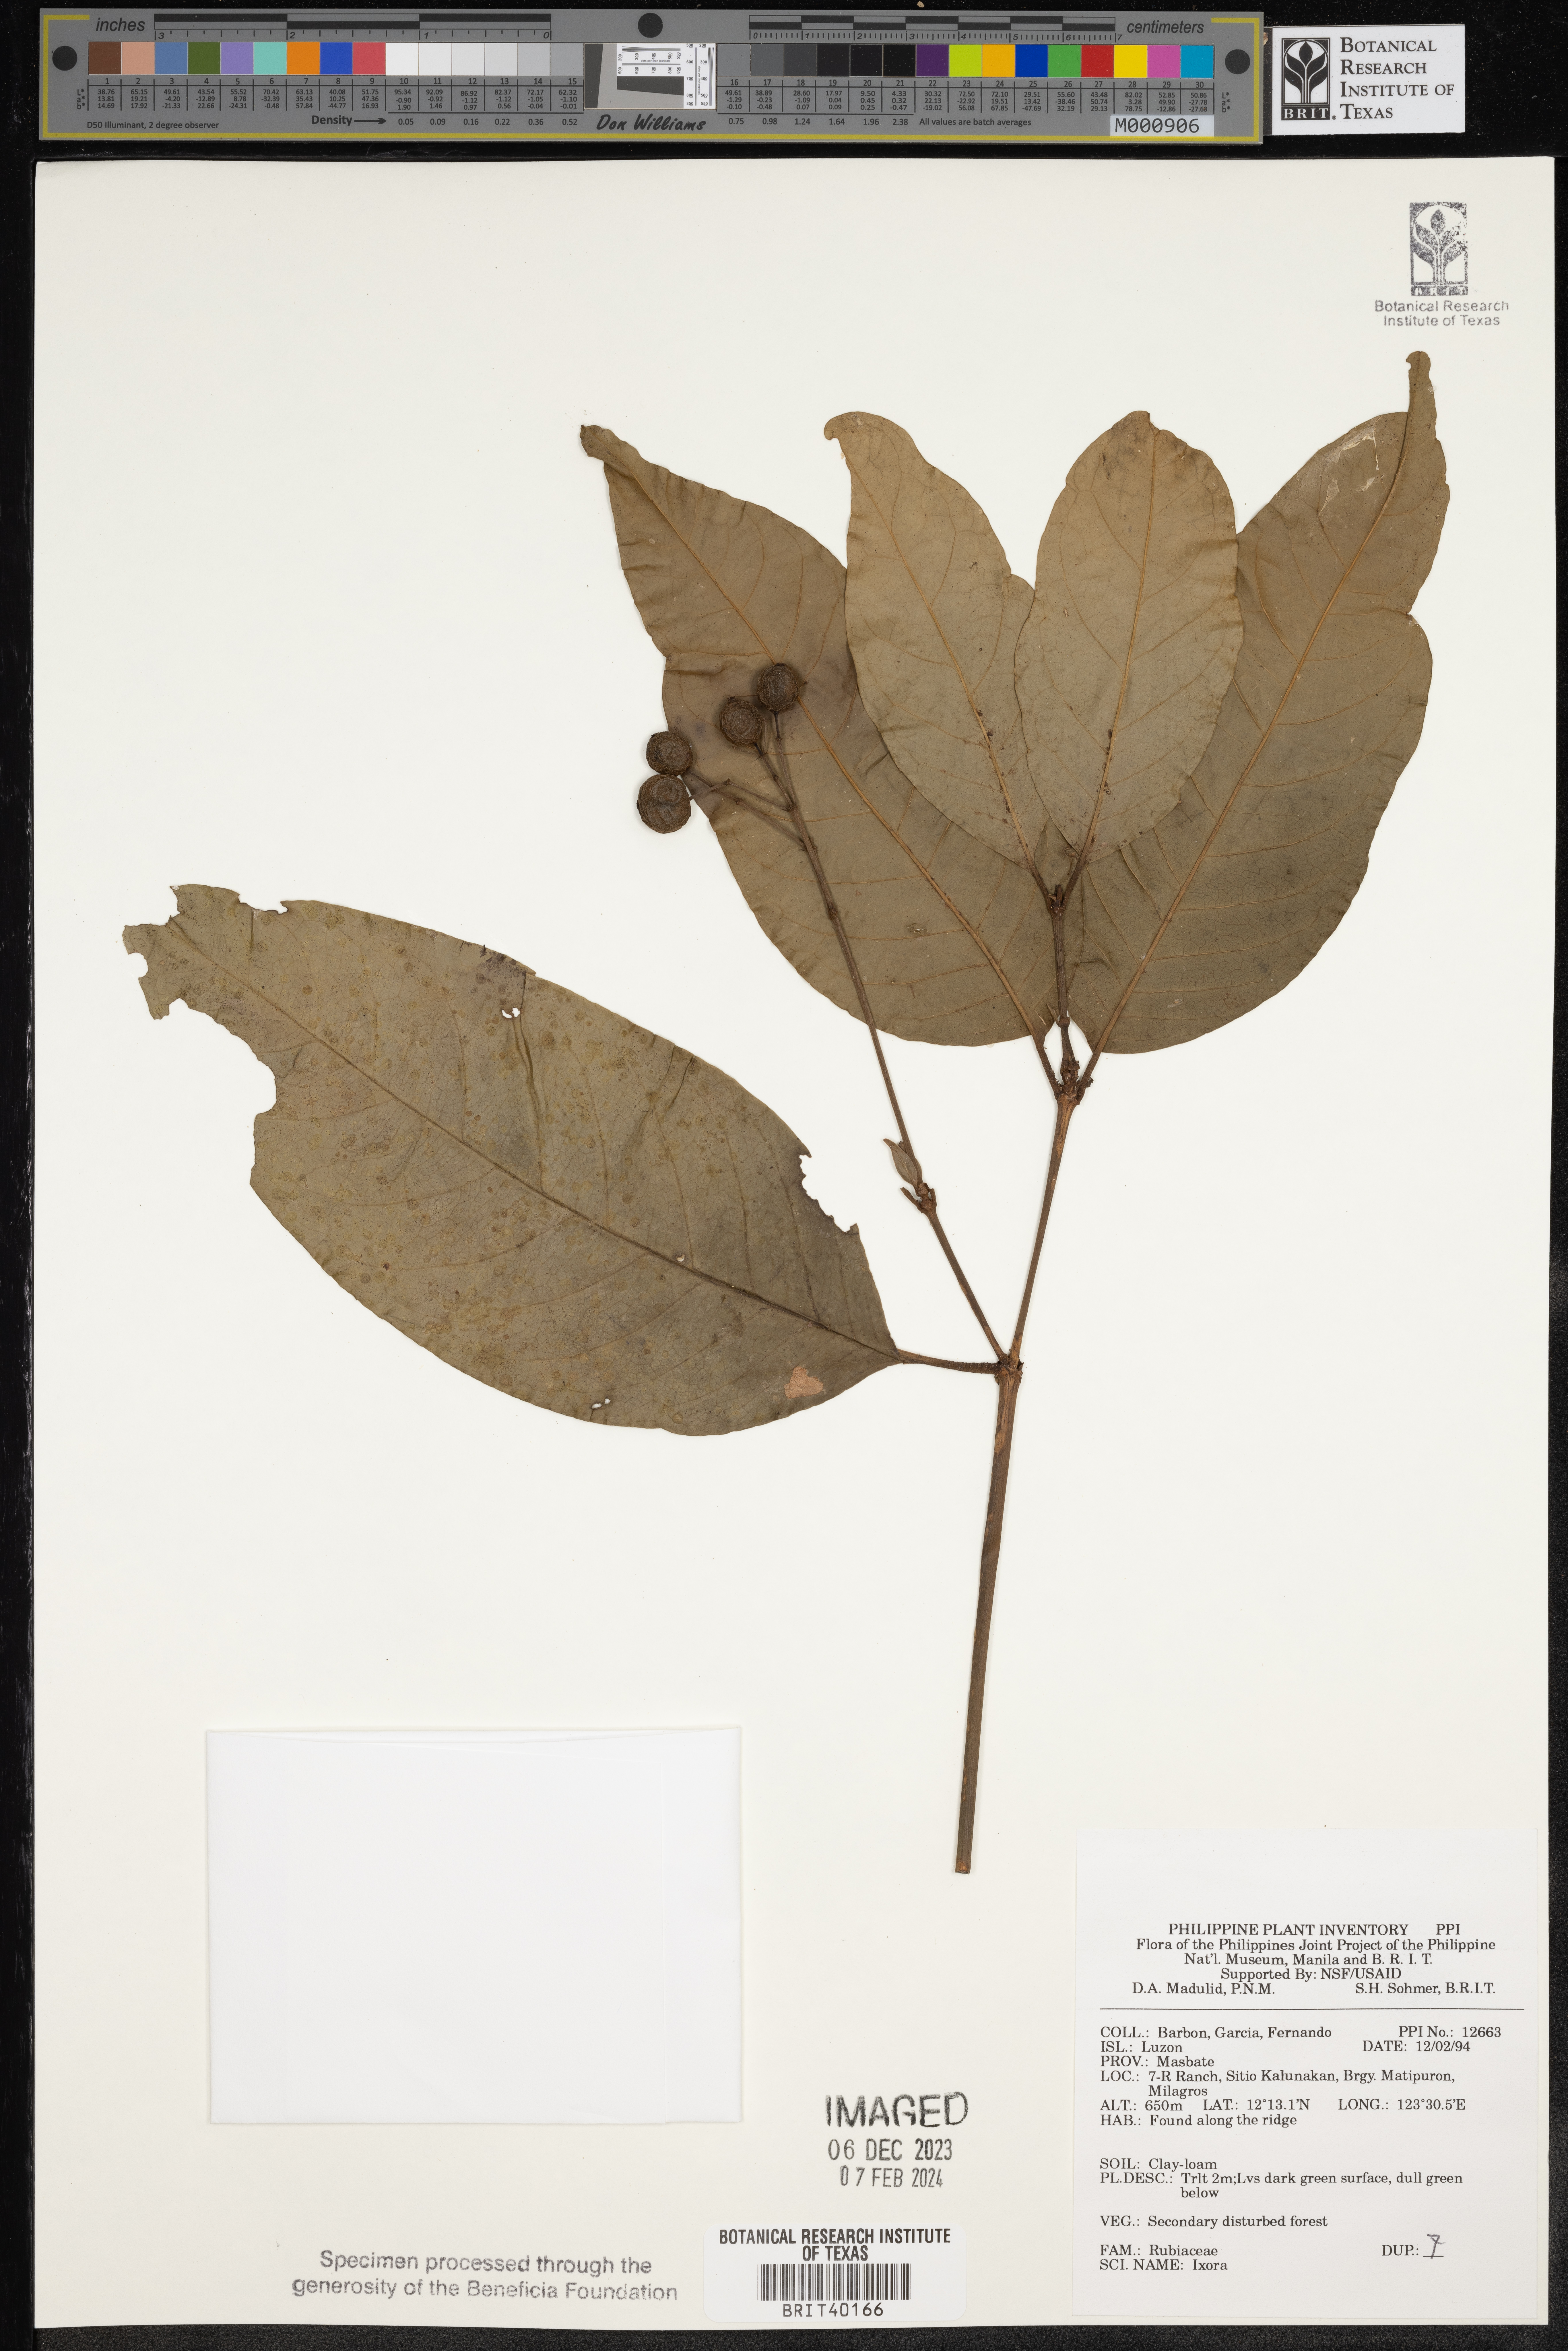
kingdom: Plantae
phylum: Tracheophyta
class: Magnoliopsida
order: Gentianales
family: Rubiaceae
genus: Ixora
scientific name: Ixora
